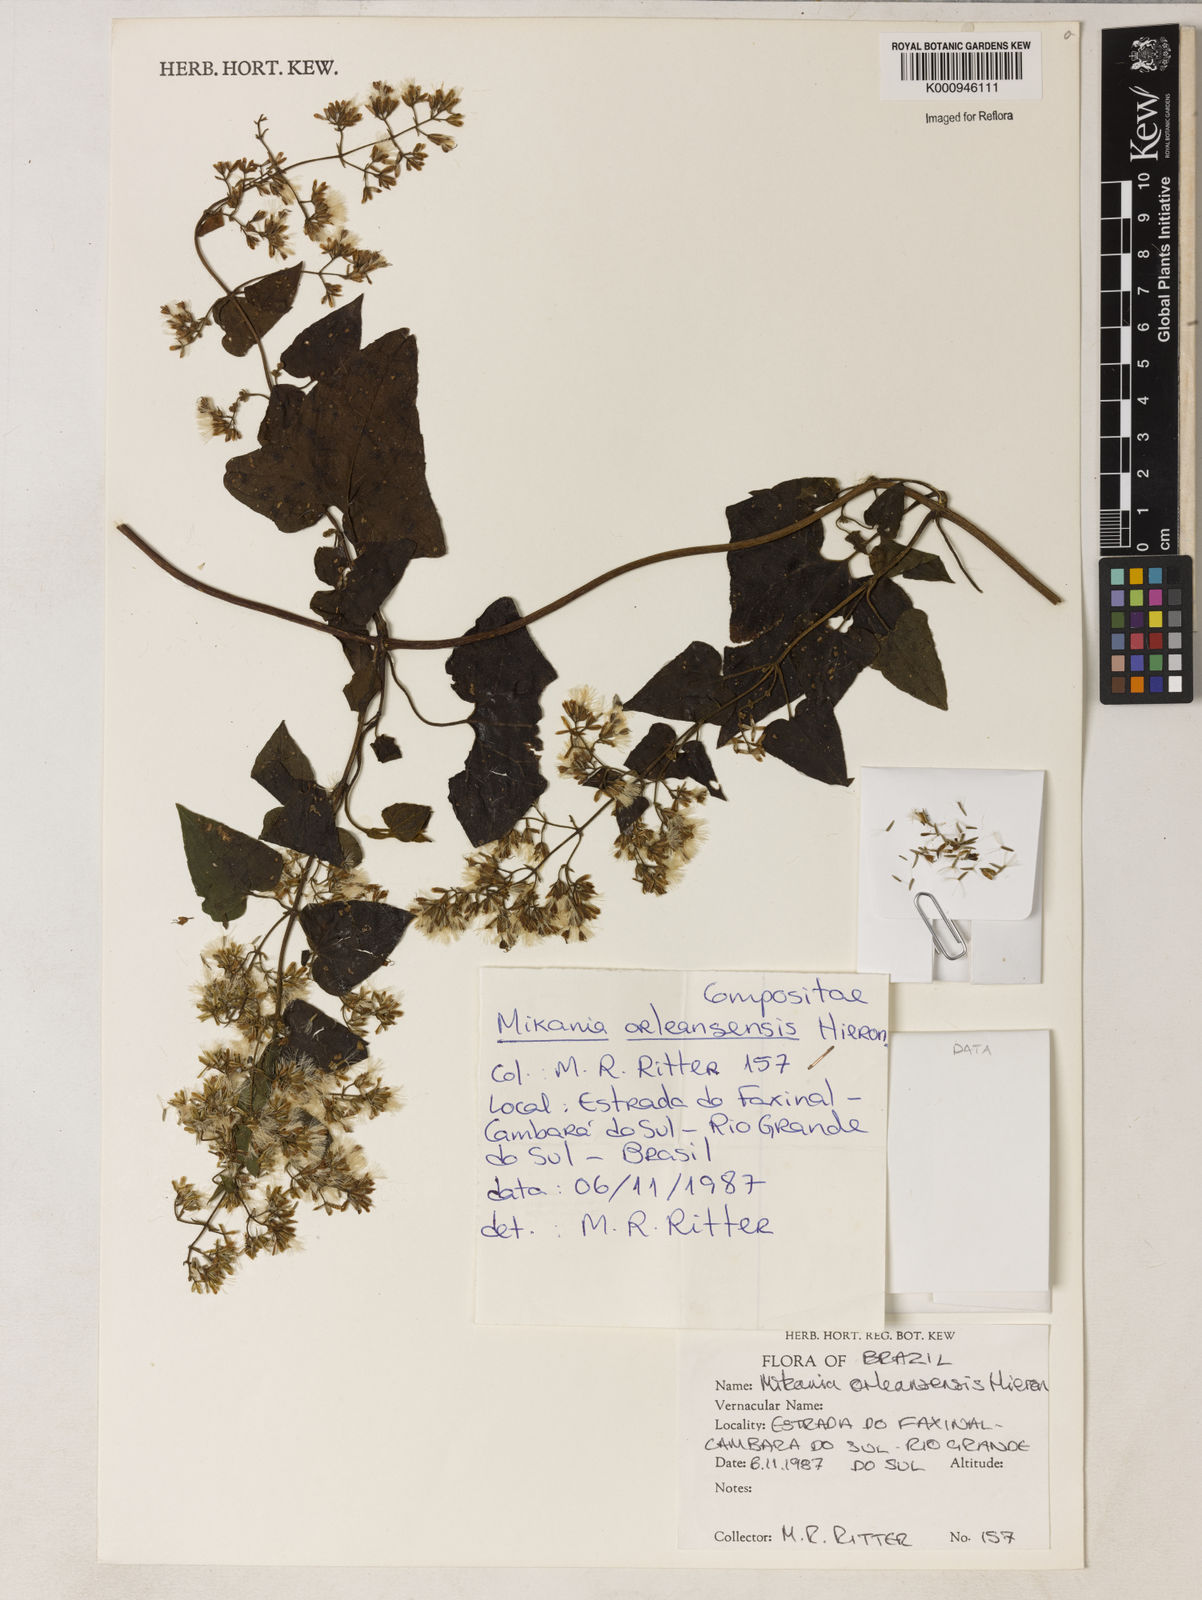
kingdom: Plantae
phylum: Tracheophyta
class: Magnoliopsida
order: Asterales
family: Asteraceae
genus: Mikania
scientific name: Mikania orleansensis
